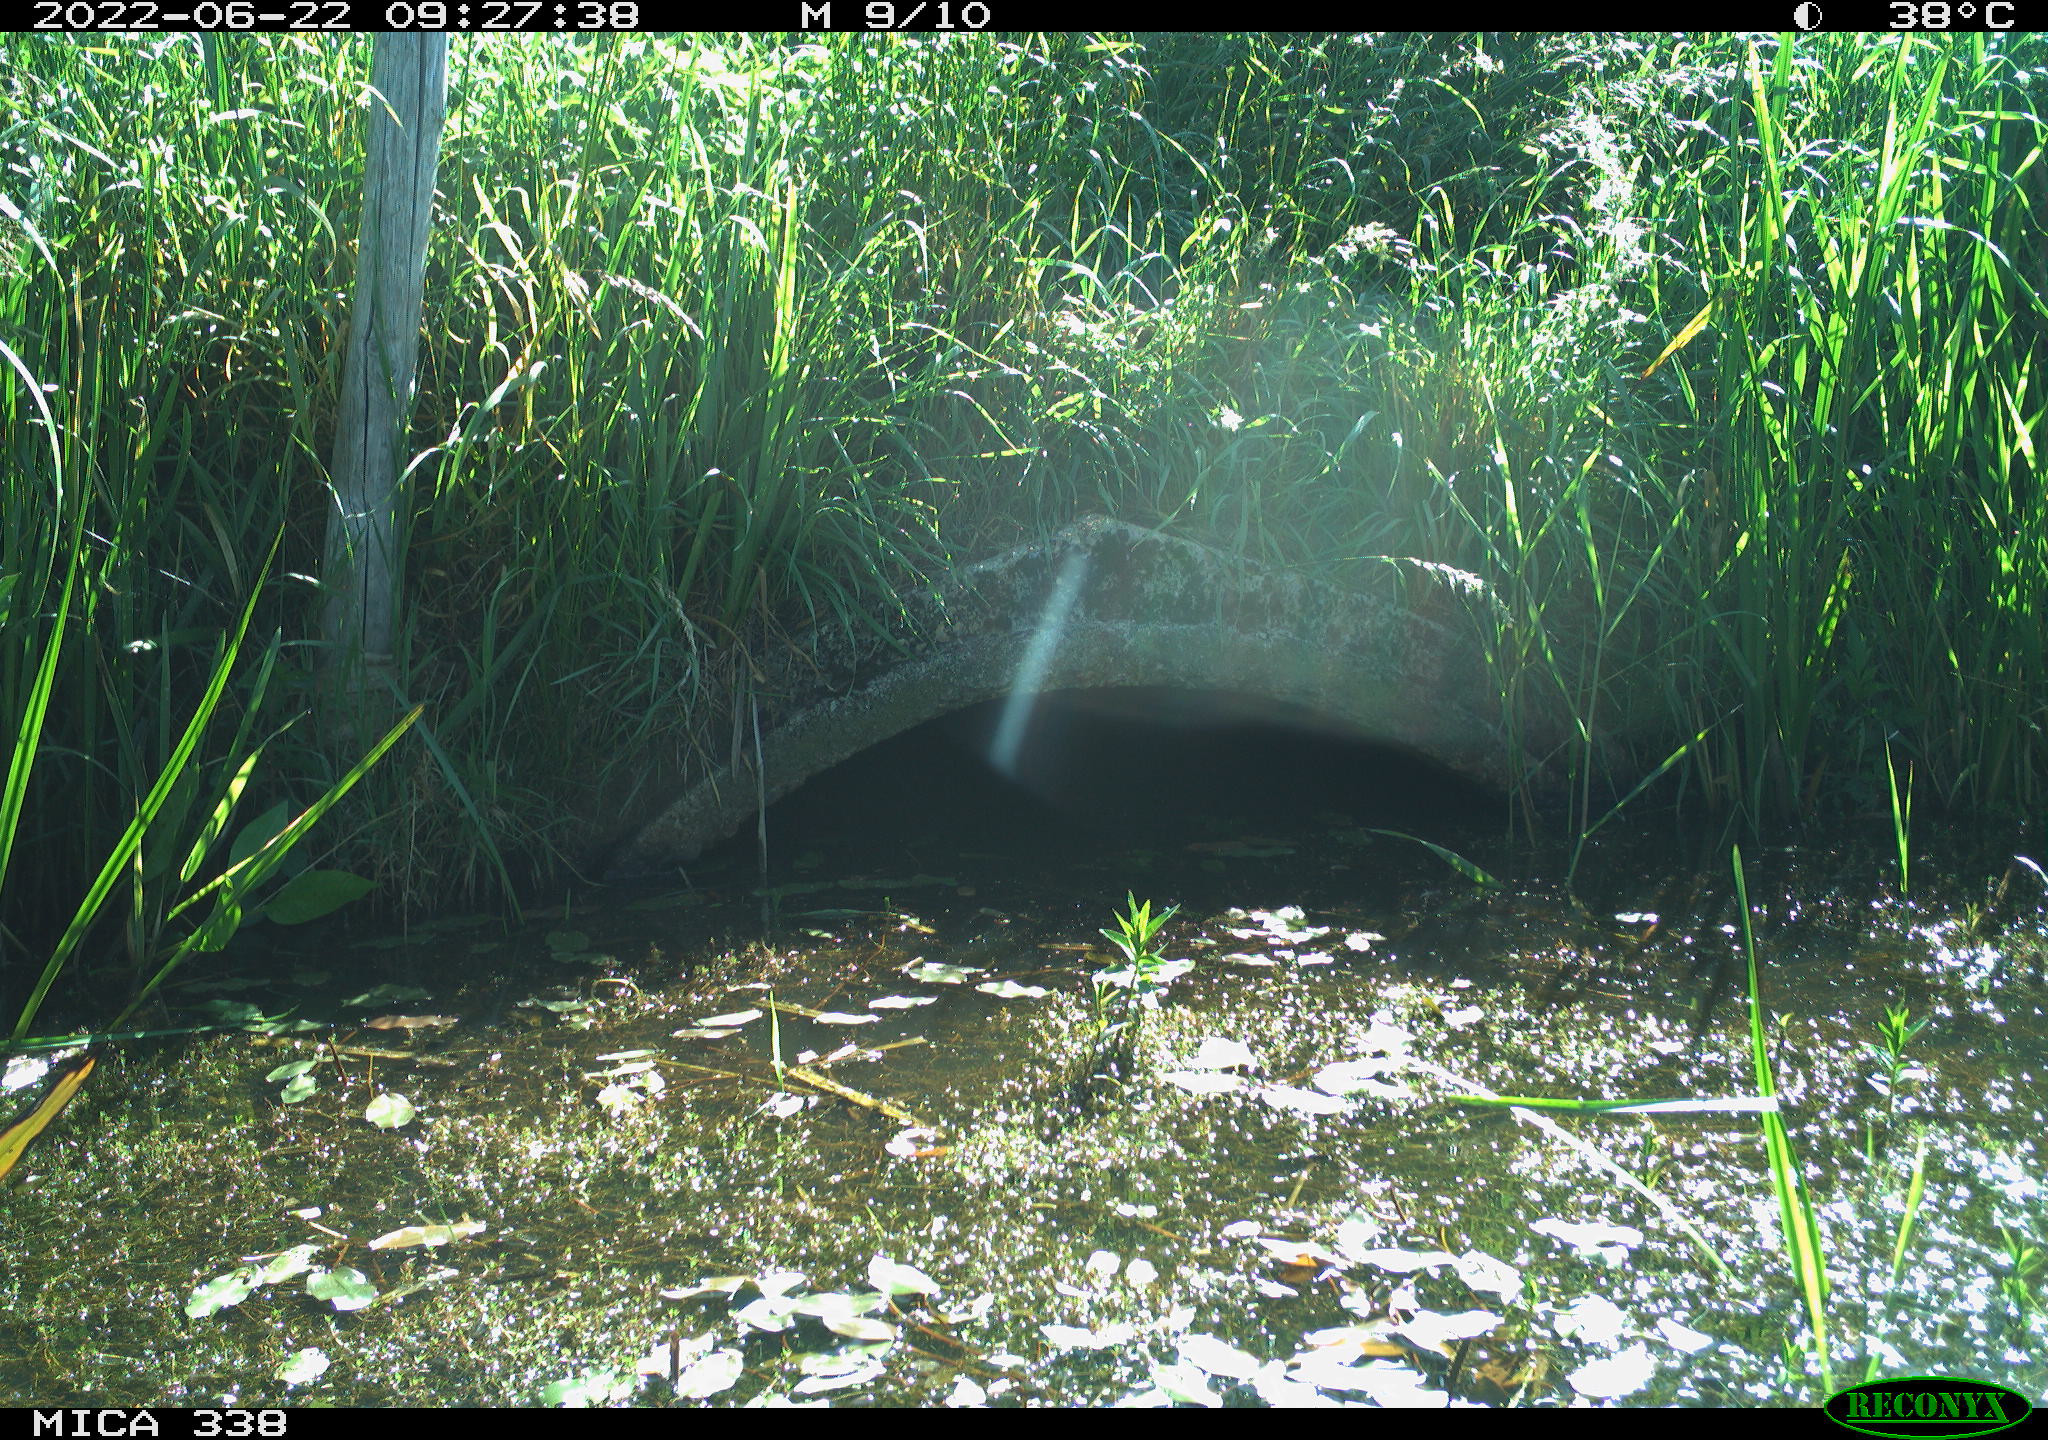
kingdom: Animalia
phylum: Chordata
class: Aves
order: Anseriformes
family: Anatidae
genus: Anas
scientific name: Anas platyrhynchos
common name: Mallard
